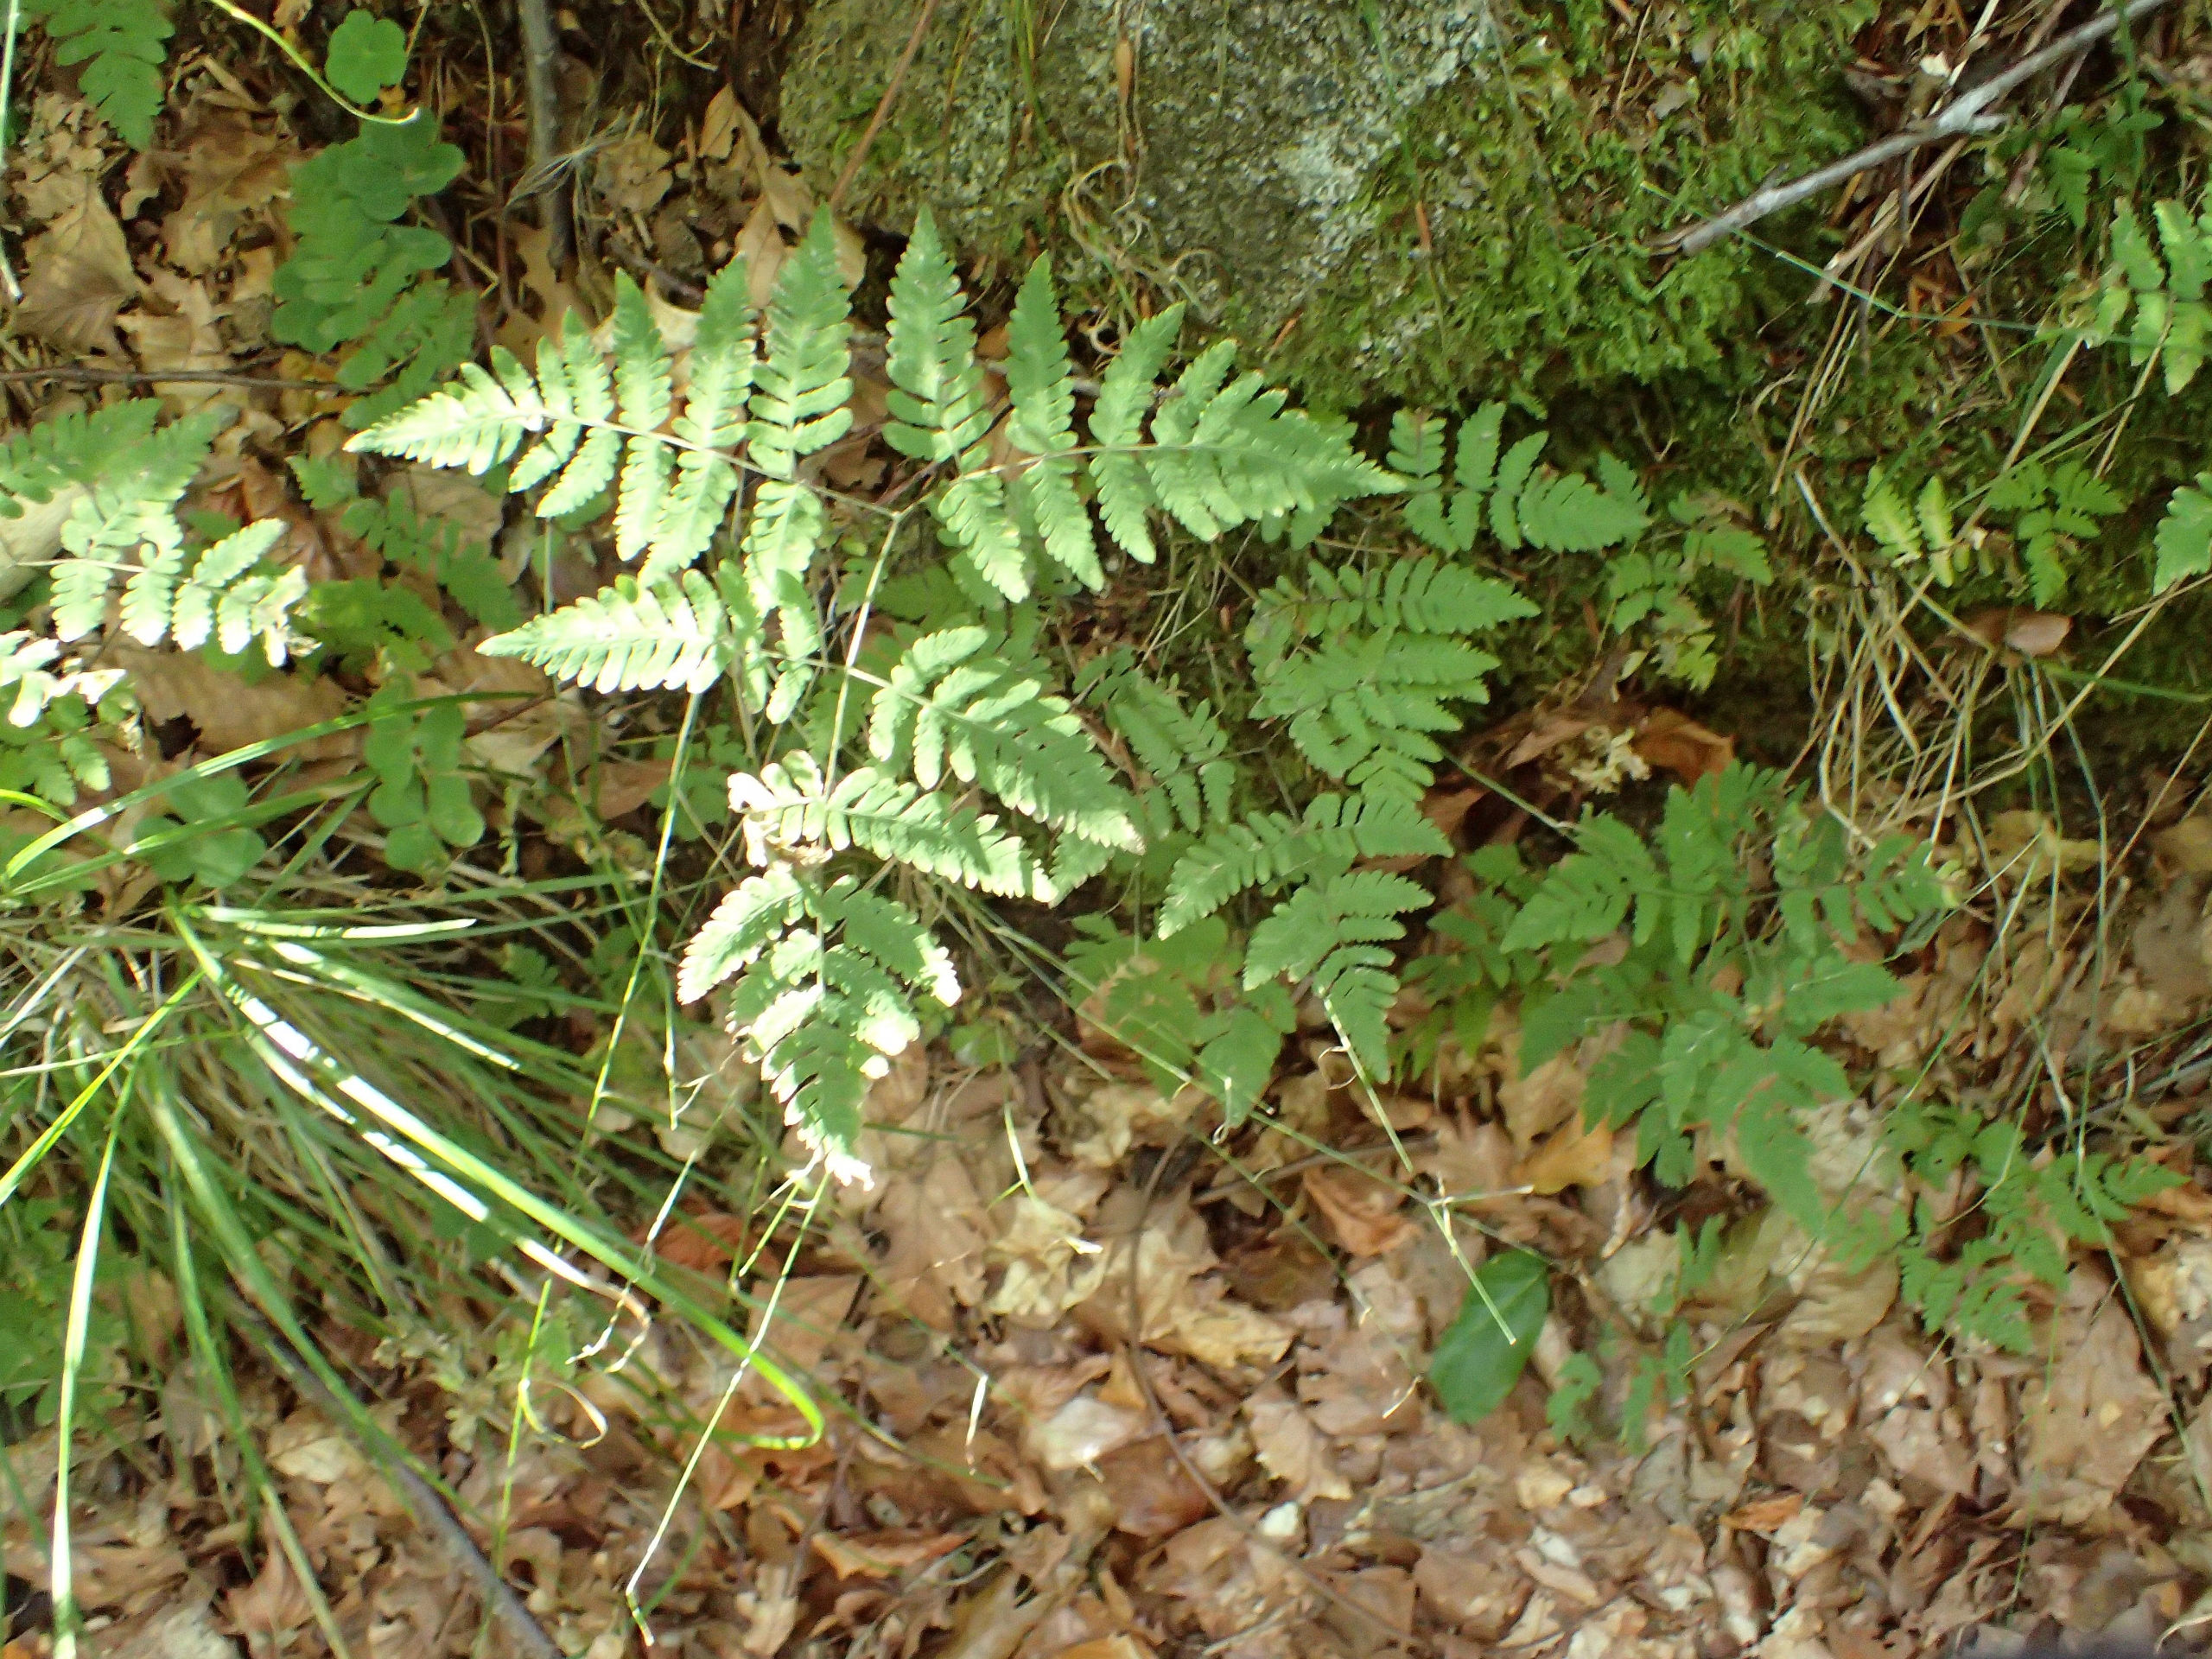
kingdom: Plantae
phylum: Tracheophyta
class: Polypodiopsida
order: Polypodiales
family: Cystopteridaceae
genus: Gymnocarpium
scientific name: Gymnocarpium dryopteris
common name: Tredelt egebregne
